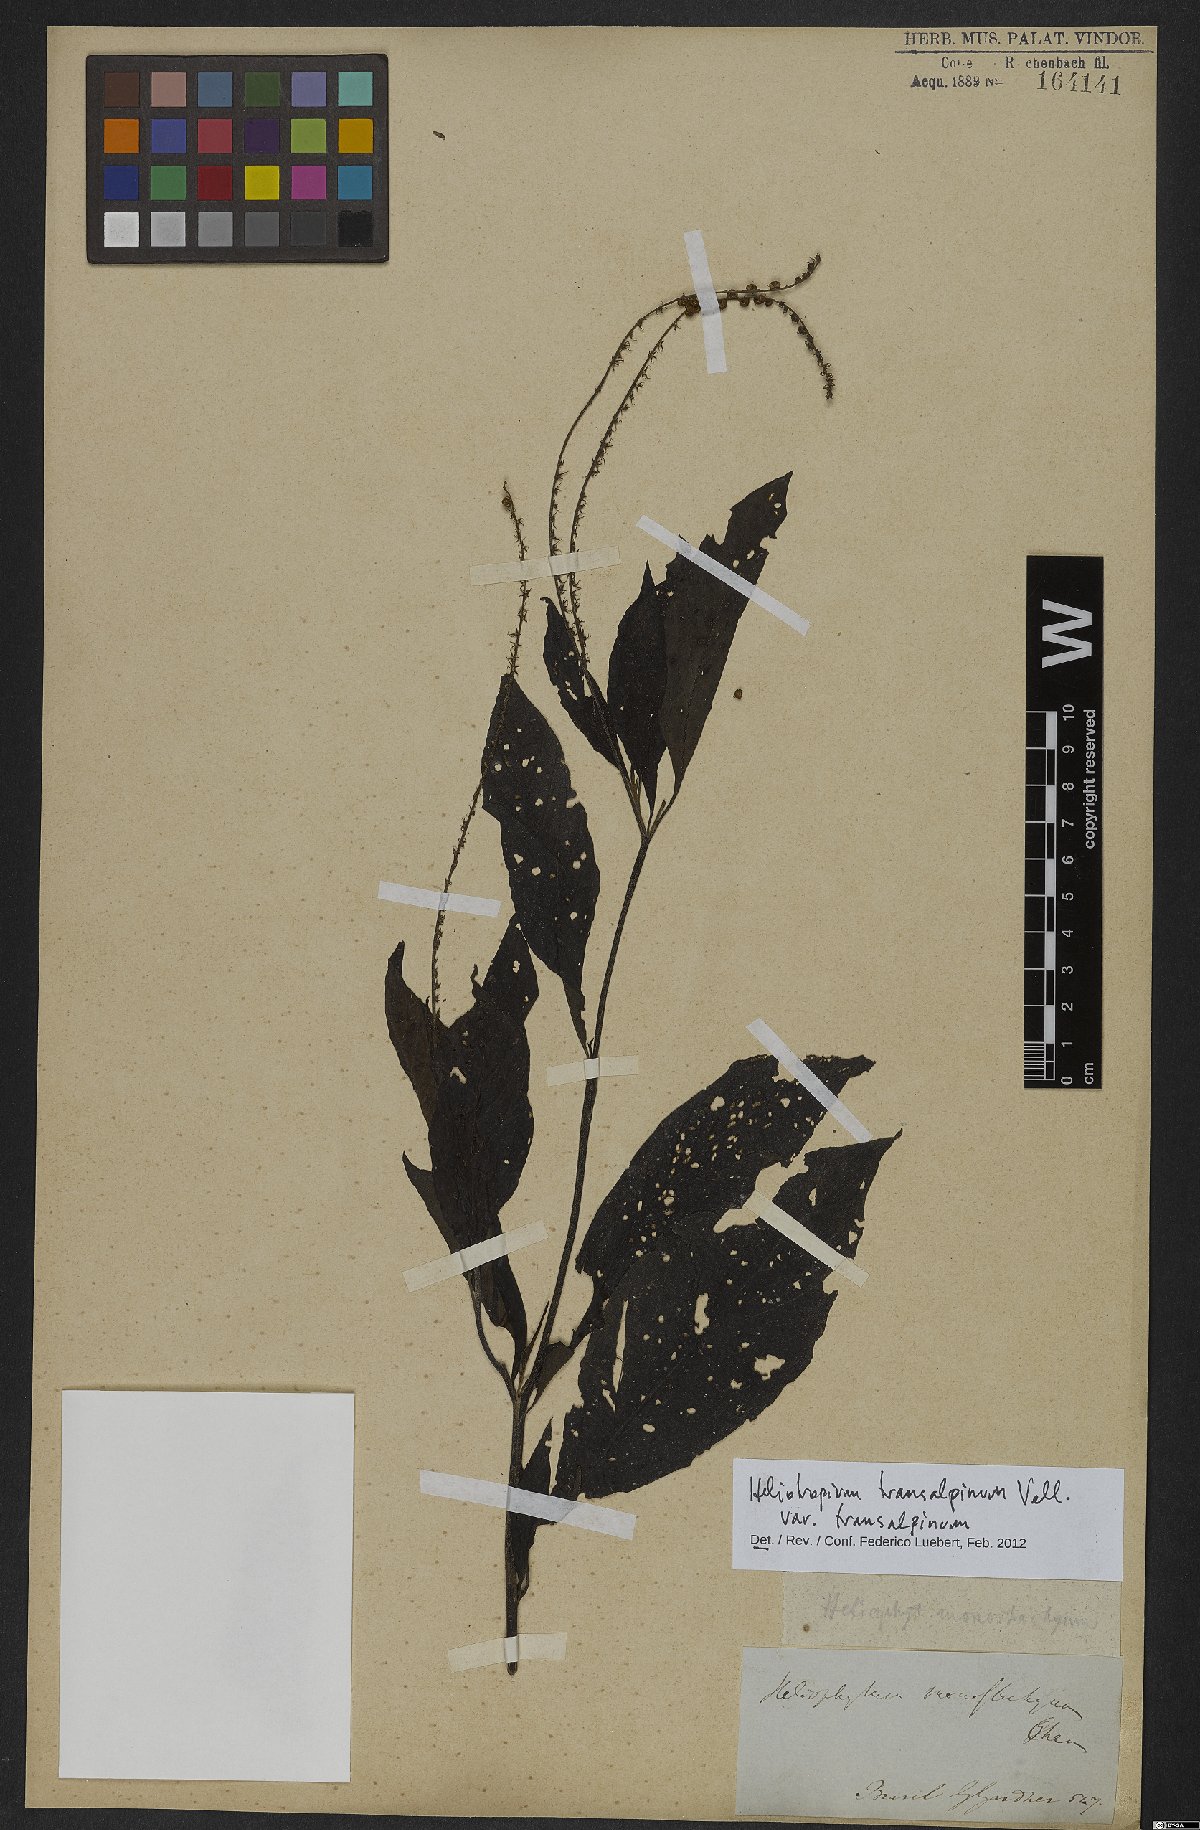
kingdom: Plantae
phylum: Tracheophyta
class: Magnoliopsida
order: Boraginales
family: Heliotropiaceae
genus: Heliotropium
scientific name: Heliotropium transalpinum
